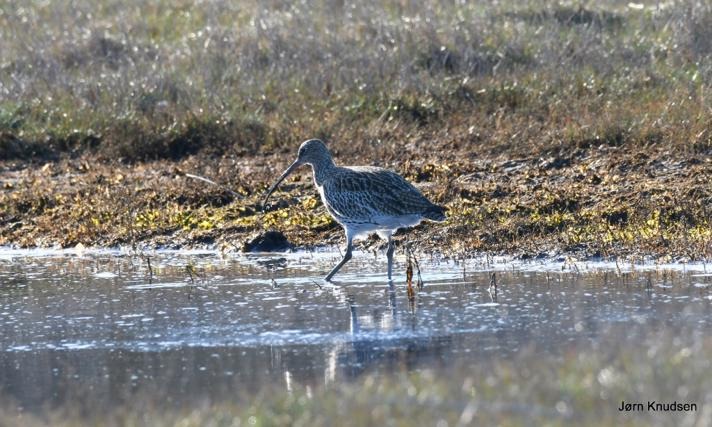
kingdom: Animalia
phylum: Chordata
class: Aves
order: Charadriiformes
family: Scolopacidae
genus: Numenius
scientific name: Numenius arquata
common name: Storspove
